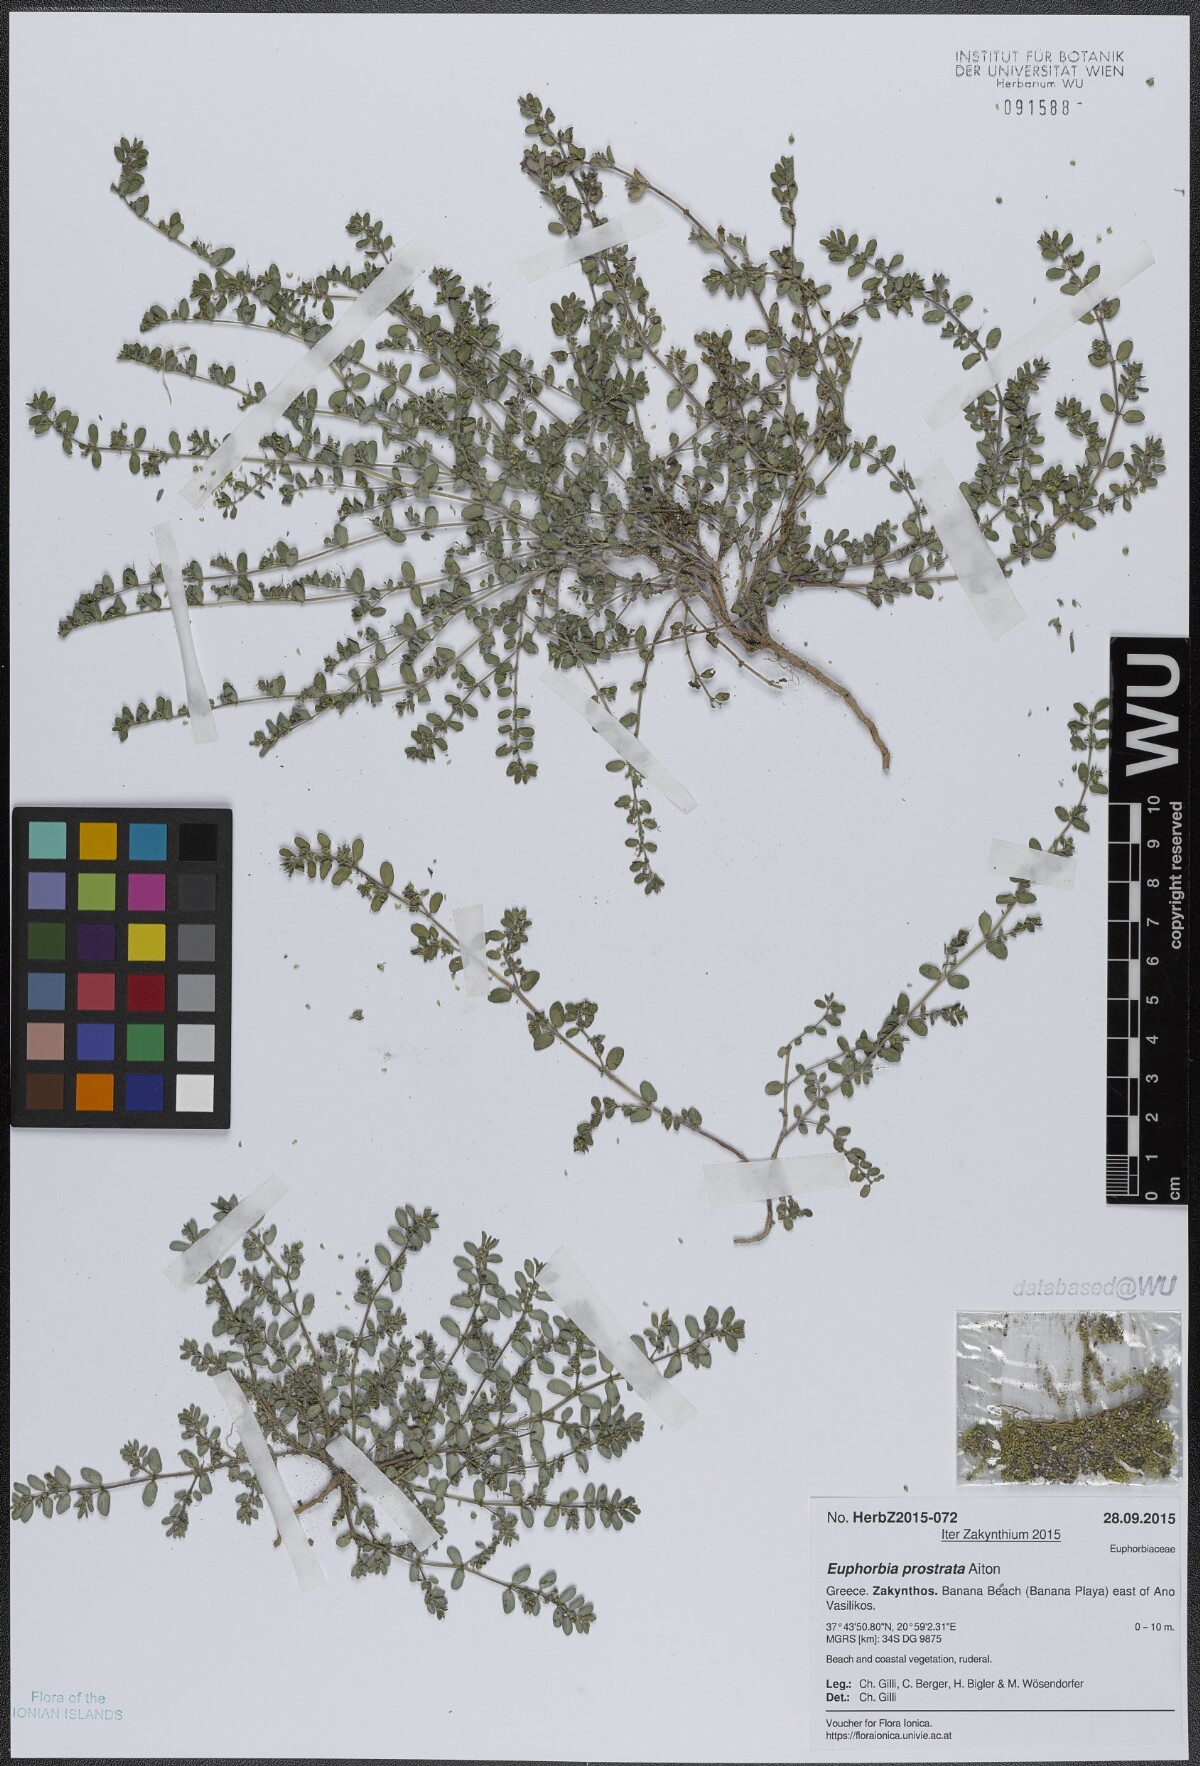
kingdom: Plantae
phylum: Tracheophyta
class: Magnoliopsida
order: Malpighiales
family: Euphorbiaceae
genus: Euphorbia
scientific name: Euphorbia prostrata
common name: Prostrate sandmat
